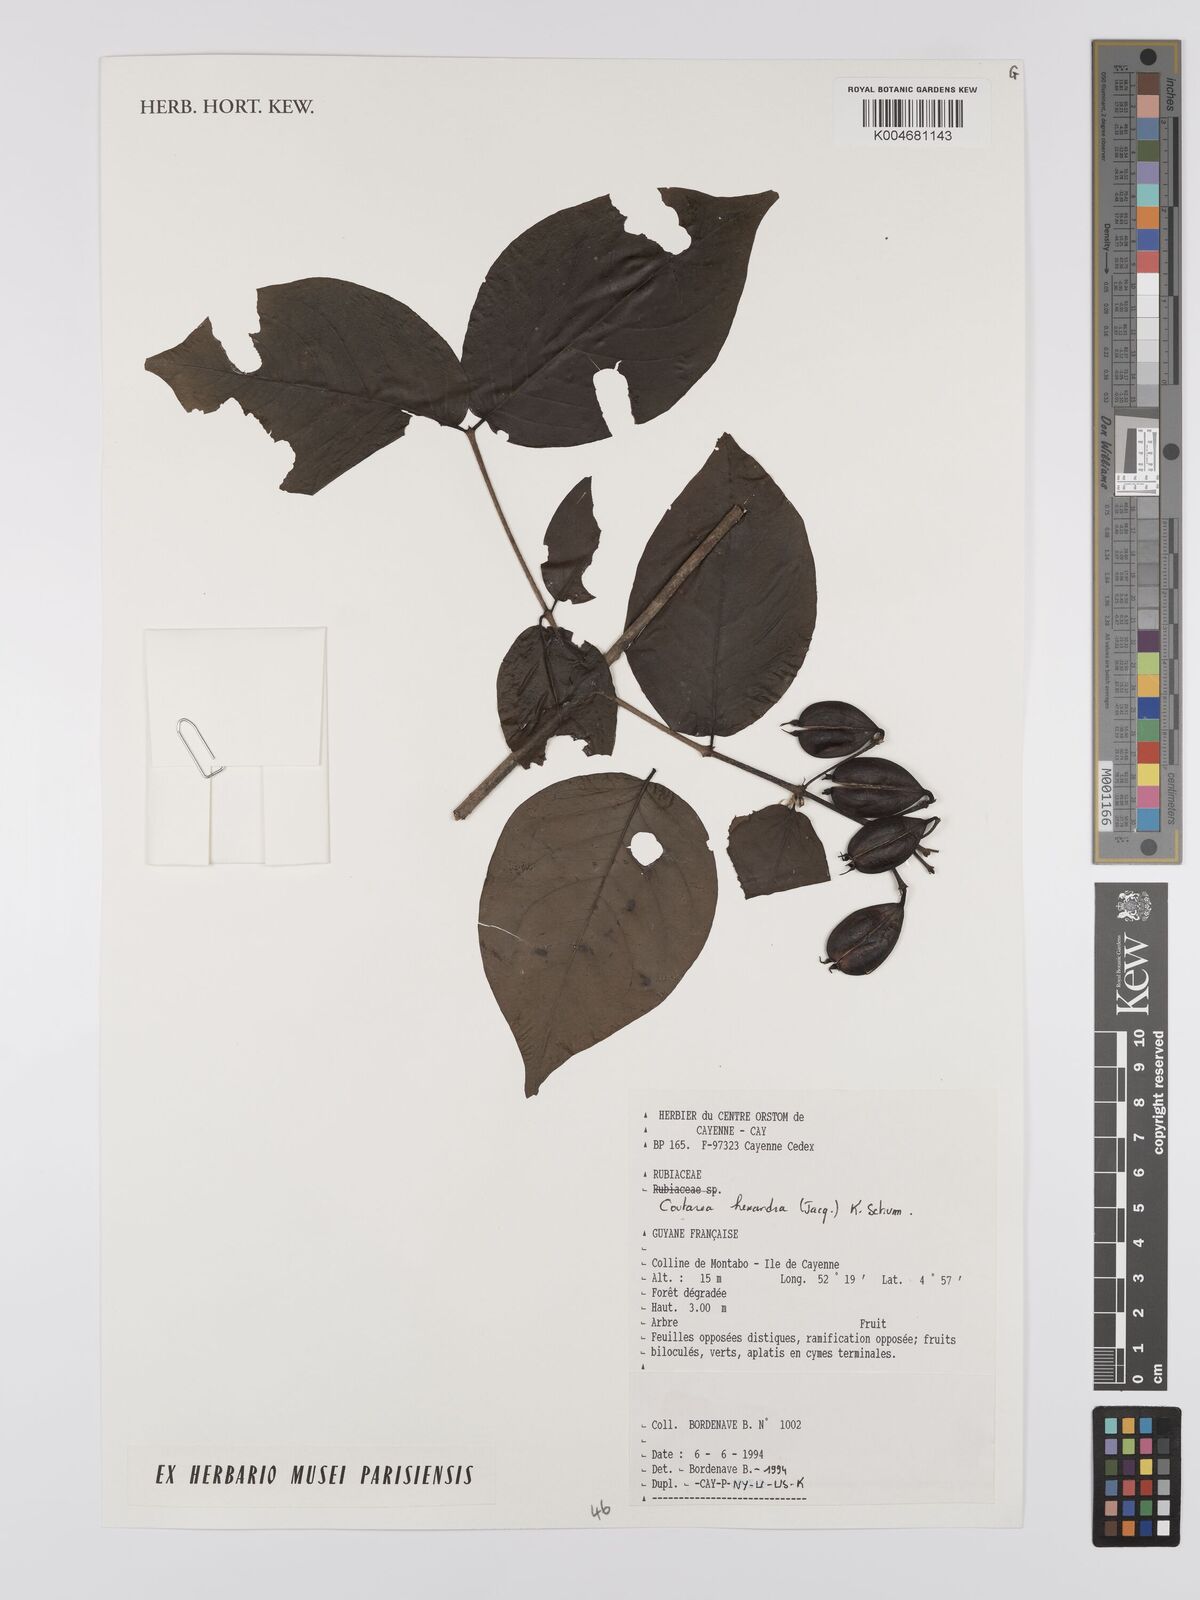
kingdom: Plantae
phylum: Tracheophyta
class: Magnoliopsida
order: Gentianales
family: Rubiaceae
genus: Coutarea
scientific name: Coutarea hexandra
